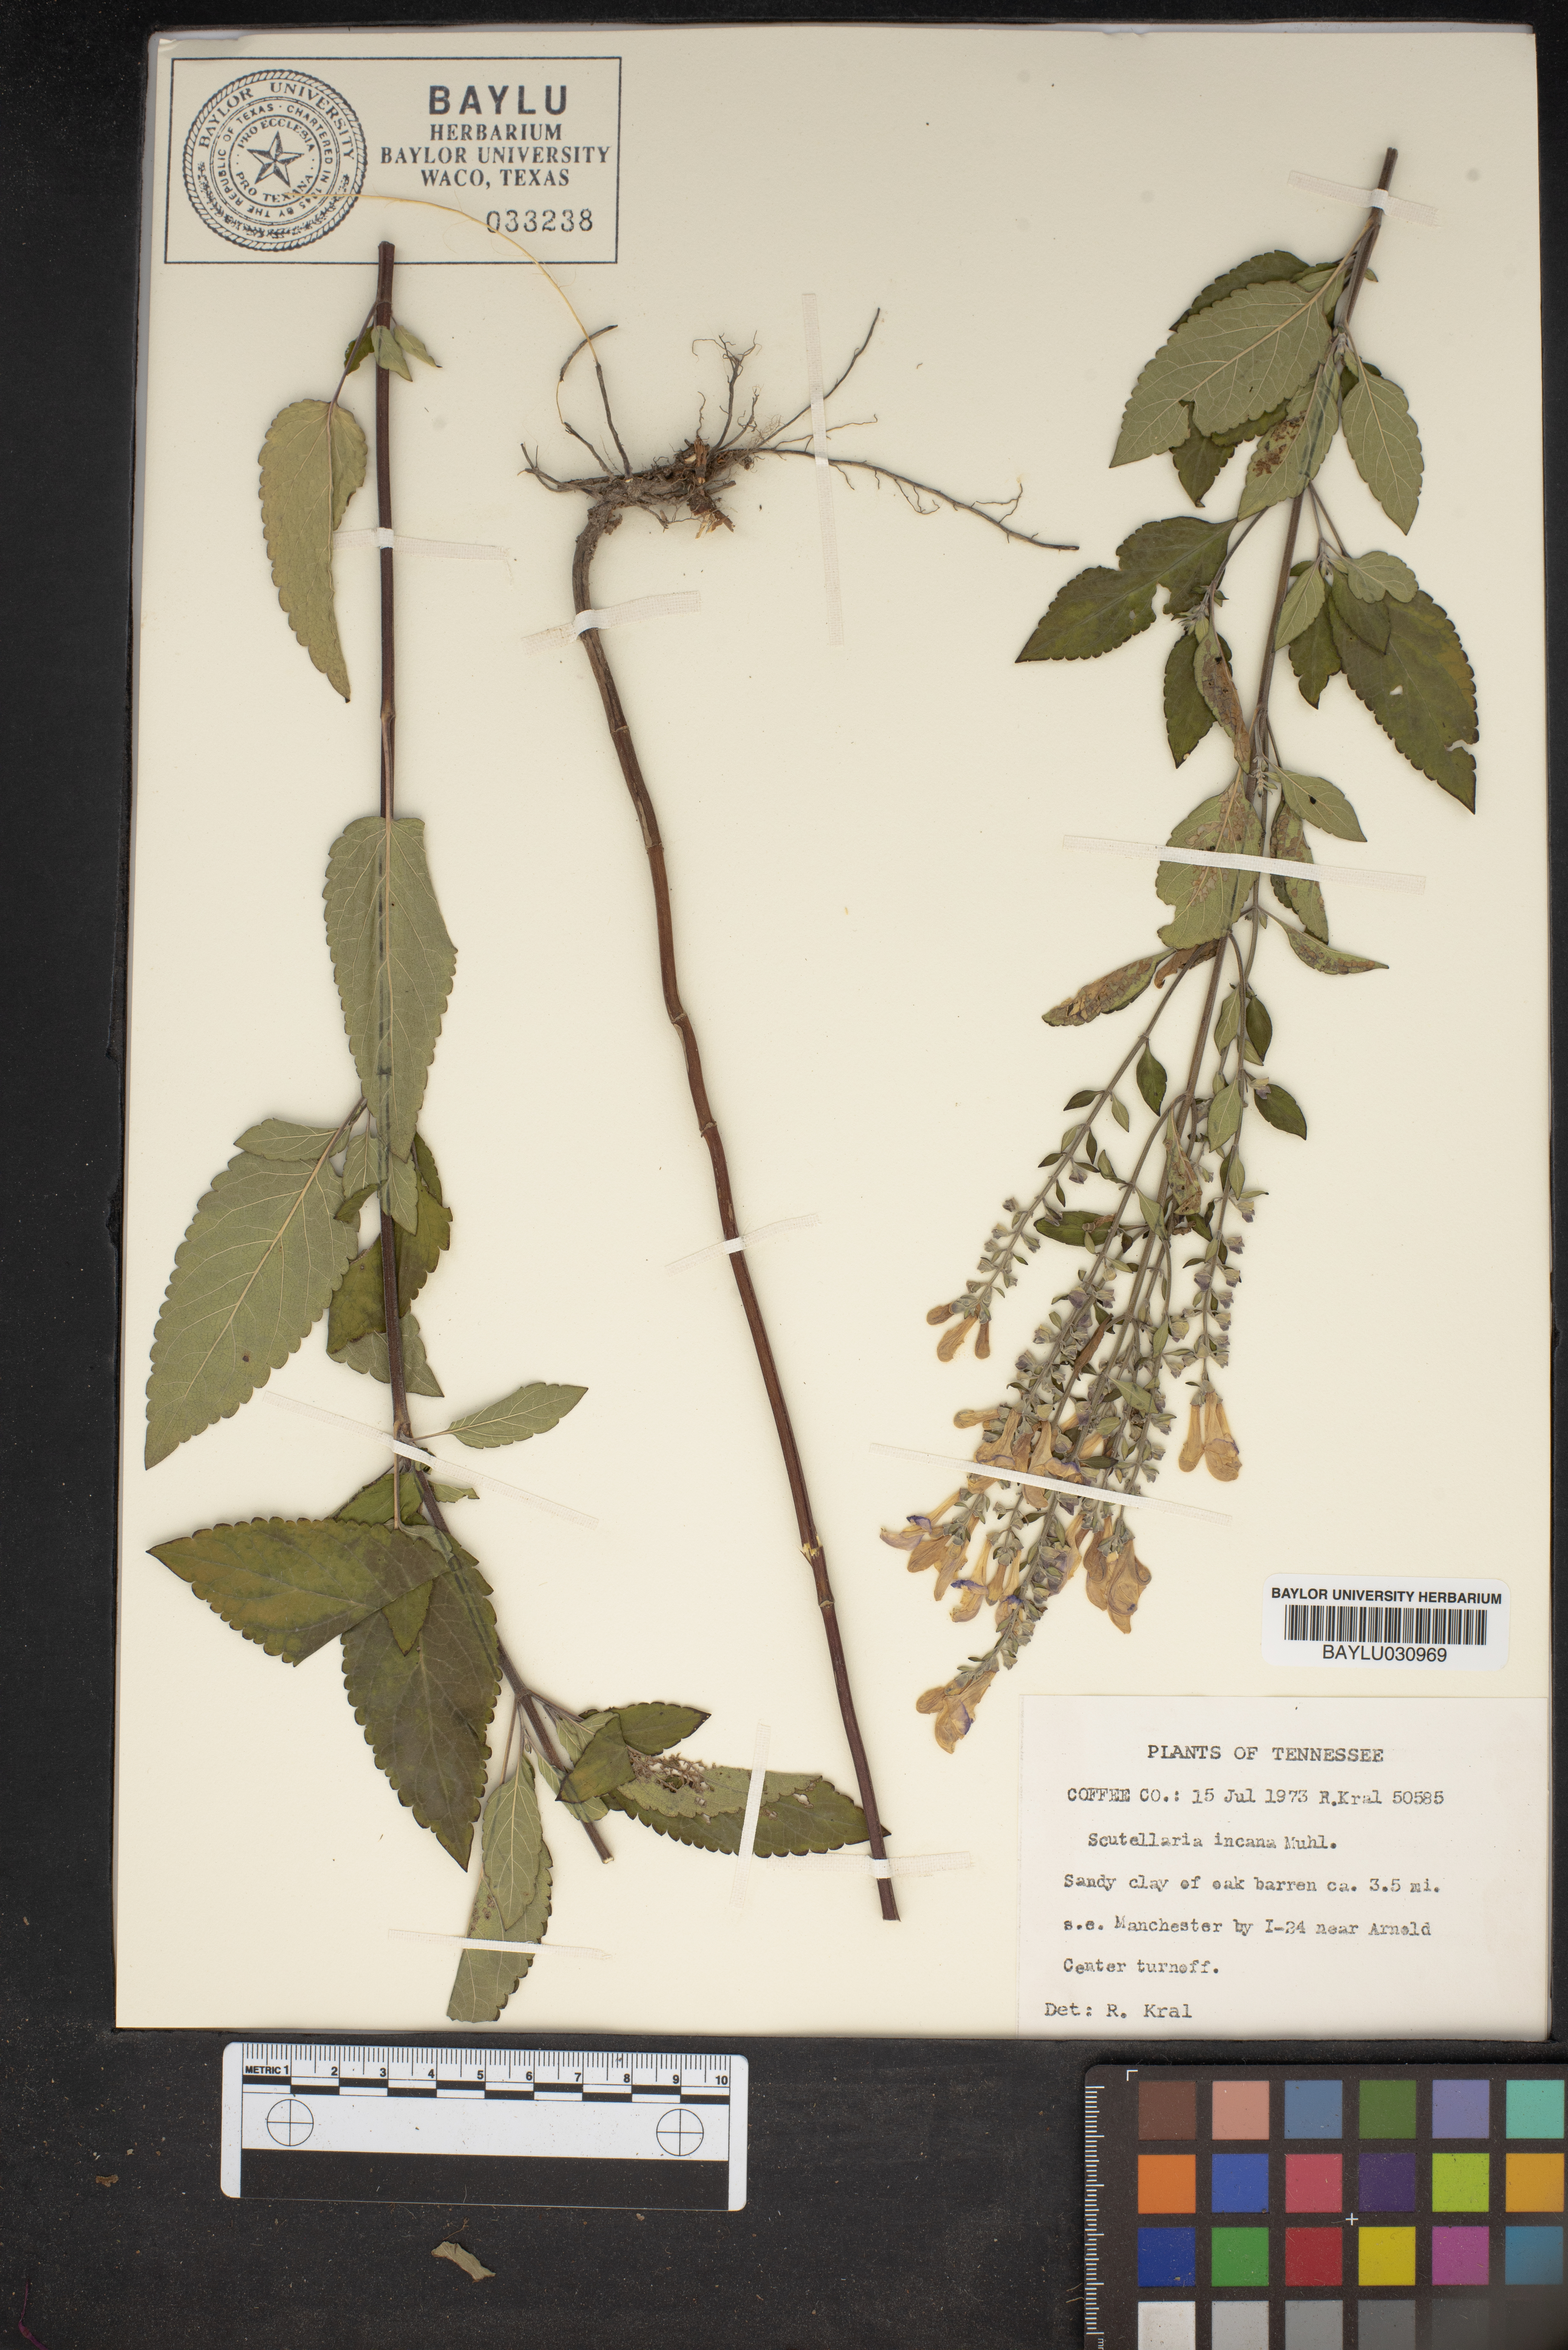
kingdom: Plantae
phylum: Tracheophyta
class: Magnoliopsida
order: Lamiales
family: Lamiaceae
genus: Scutellaria
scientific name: Scutellaria incana
